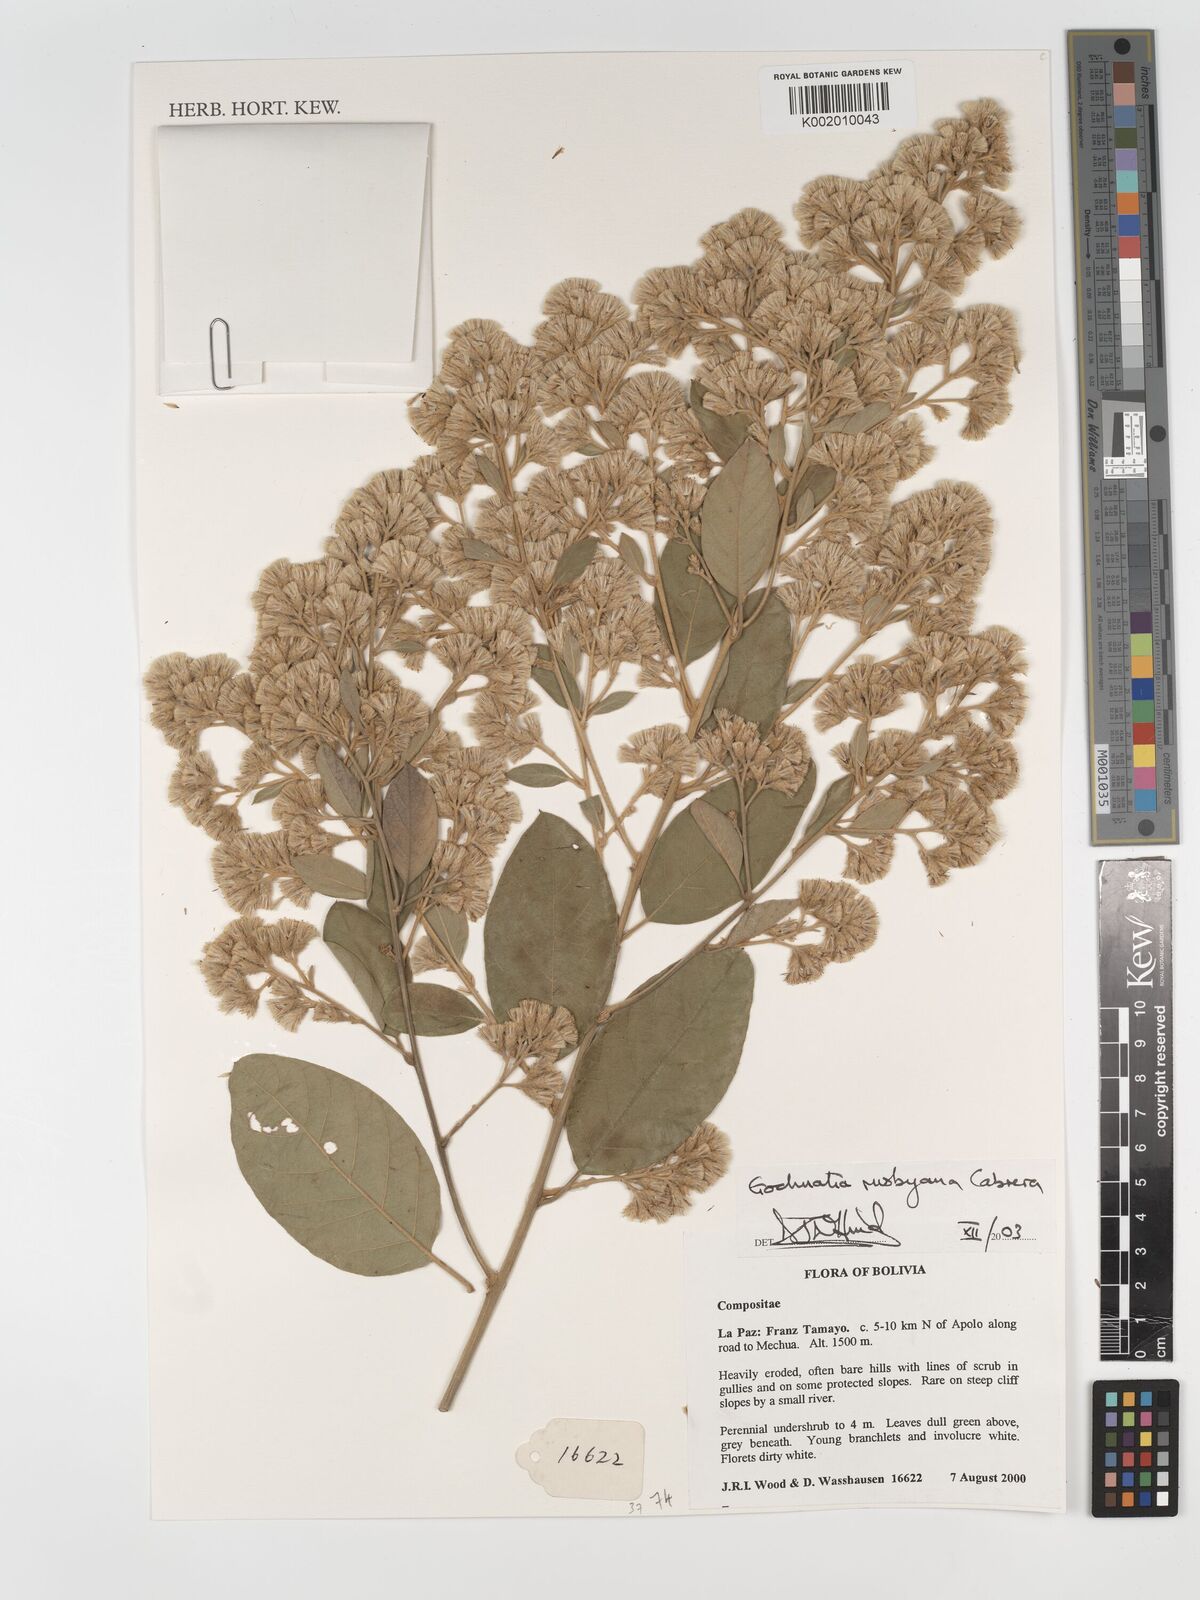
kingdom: Plantae
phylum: Tracheophyta
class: Magnoliopsida
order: Asterales
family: Asteraceae
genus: Moquiniastrum
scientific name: Moquiniastrum bolivianum
